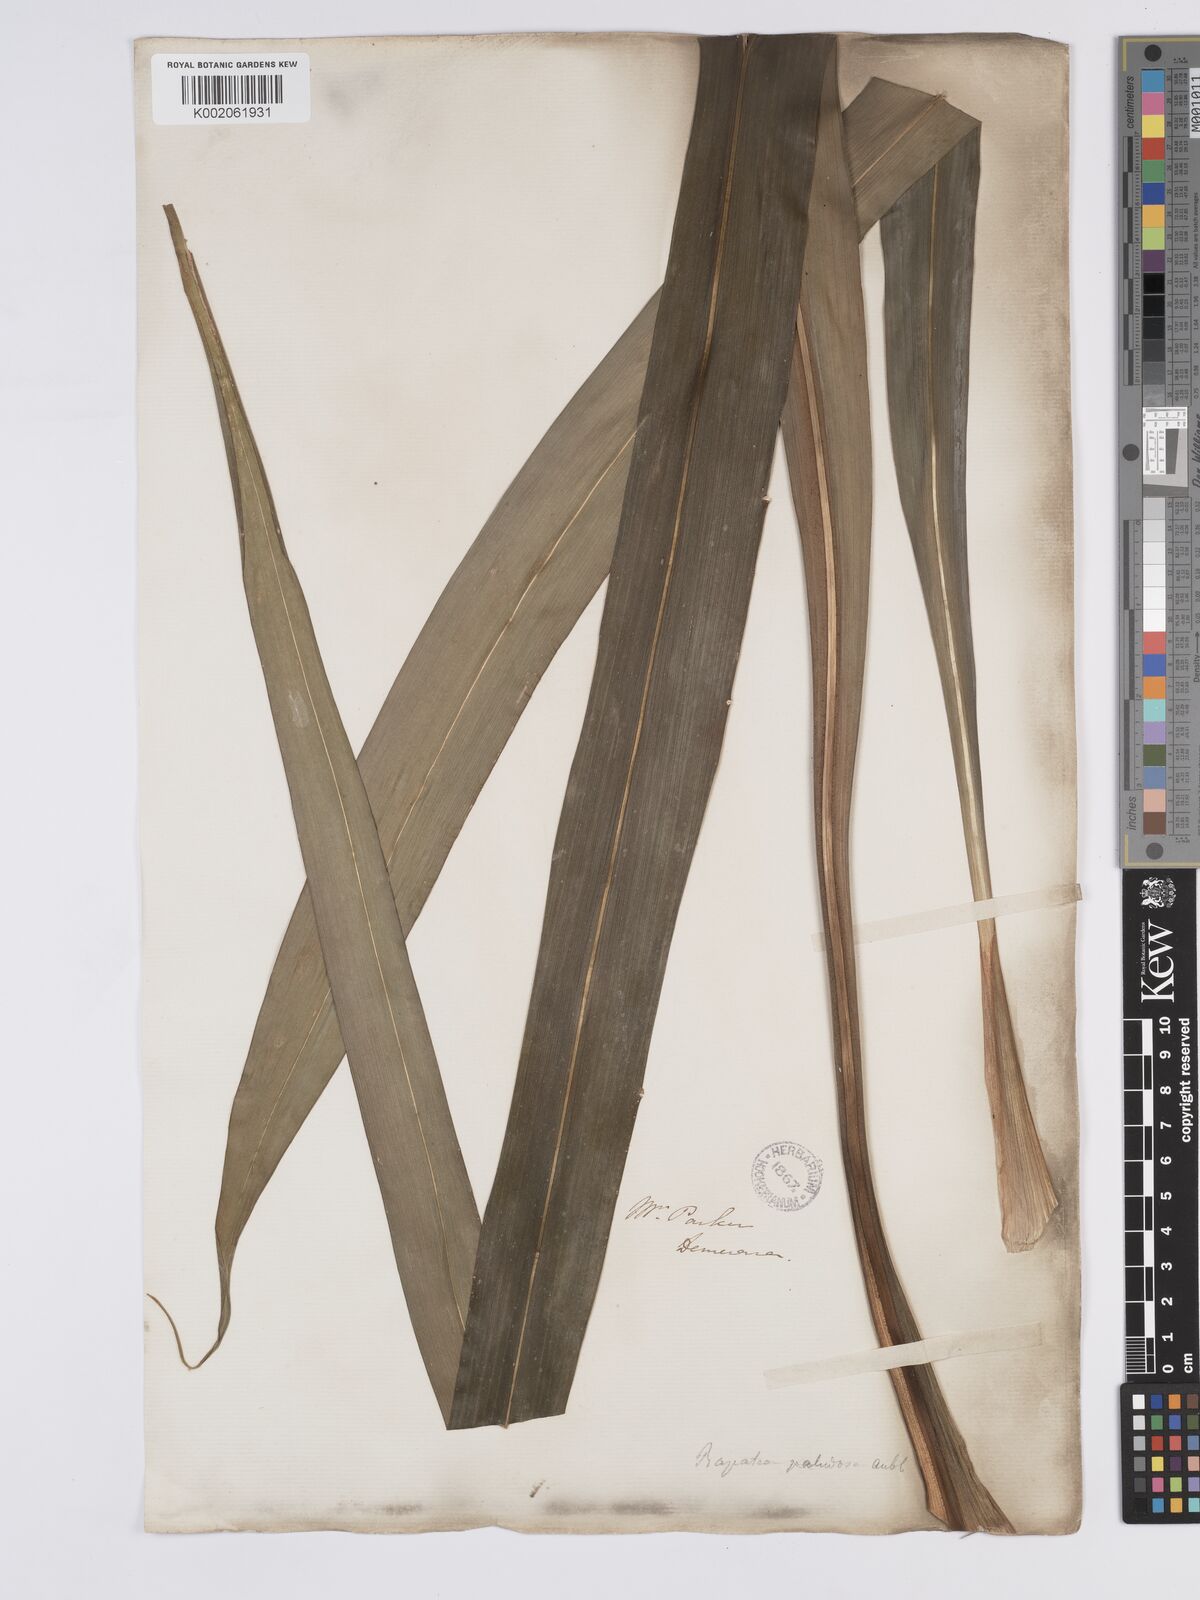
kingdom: Plantae
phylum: Tracheophyta
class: Liliopsida
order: Poales
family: Rapateaceae
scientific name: Rapateaceae
